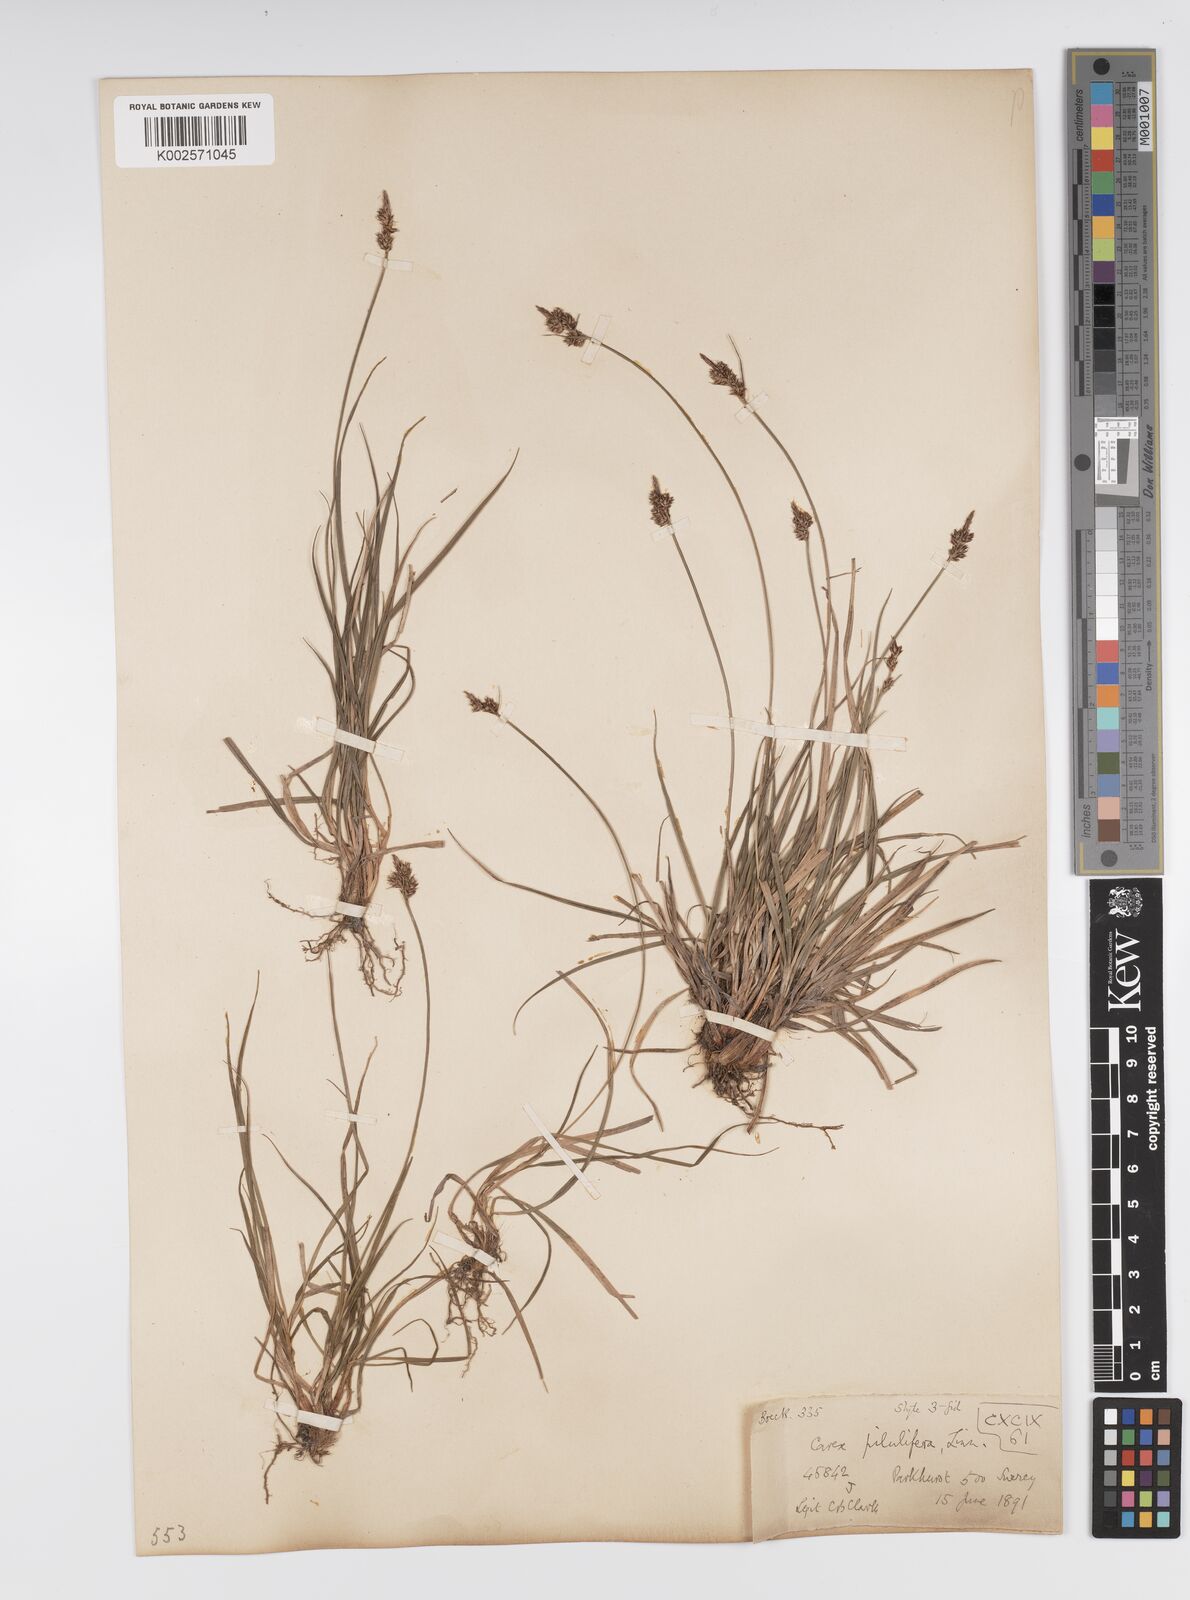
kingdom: Plantae
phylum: Tracheophyta
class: Liliopsida
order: Poales
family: Cyperaceae
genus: Carex
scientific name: Carex pilulifera
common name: Pill sedge
